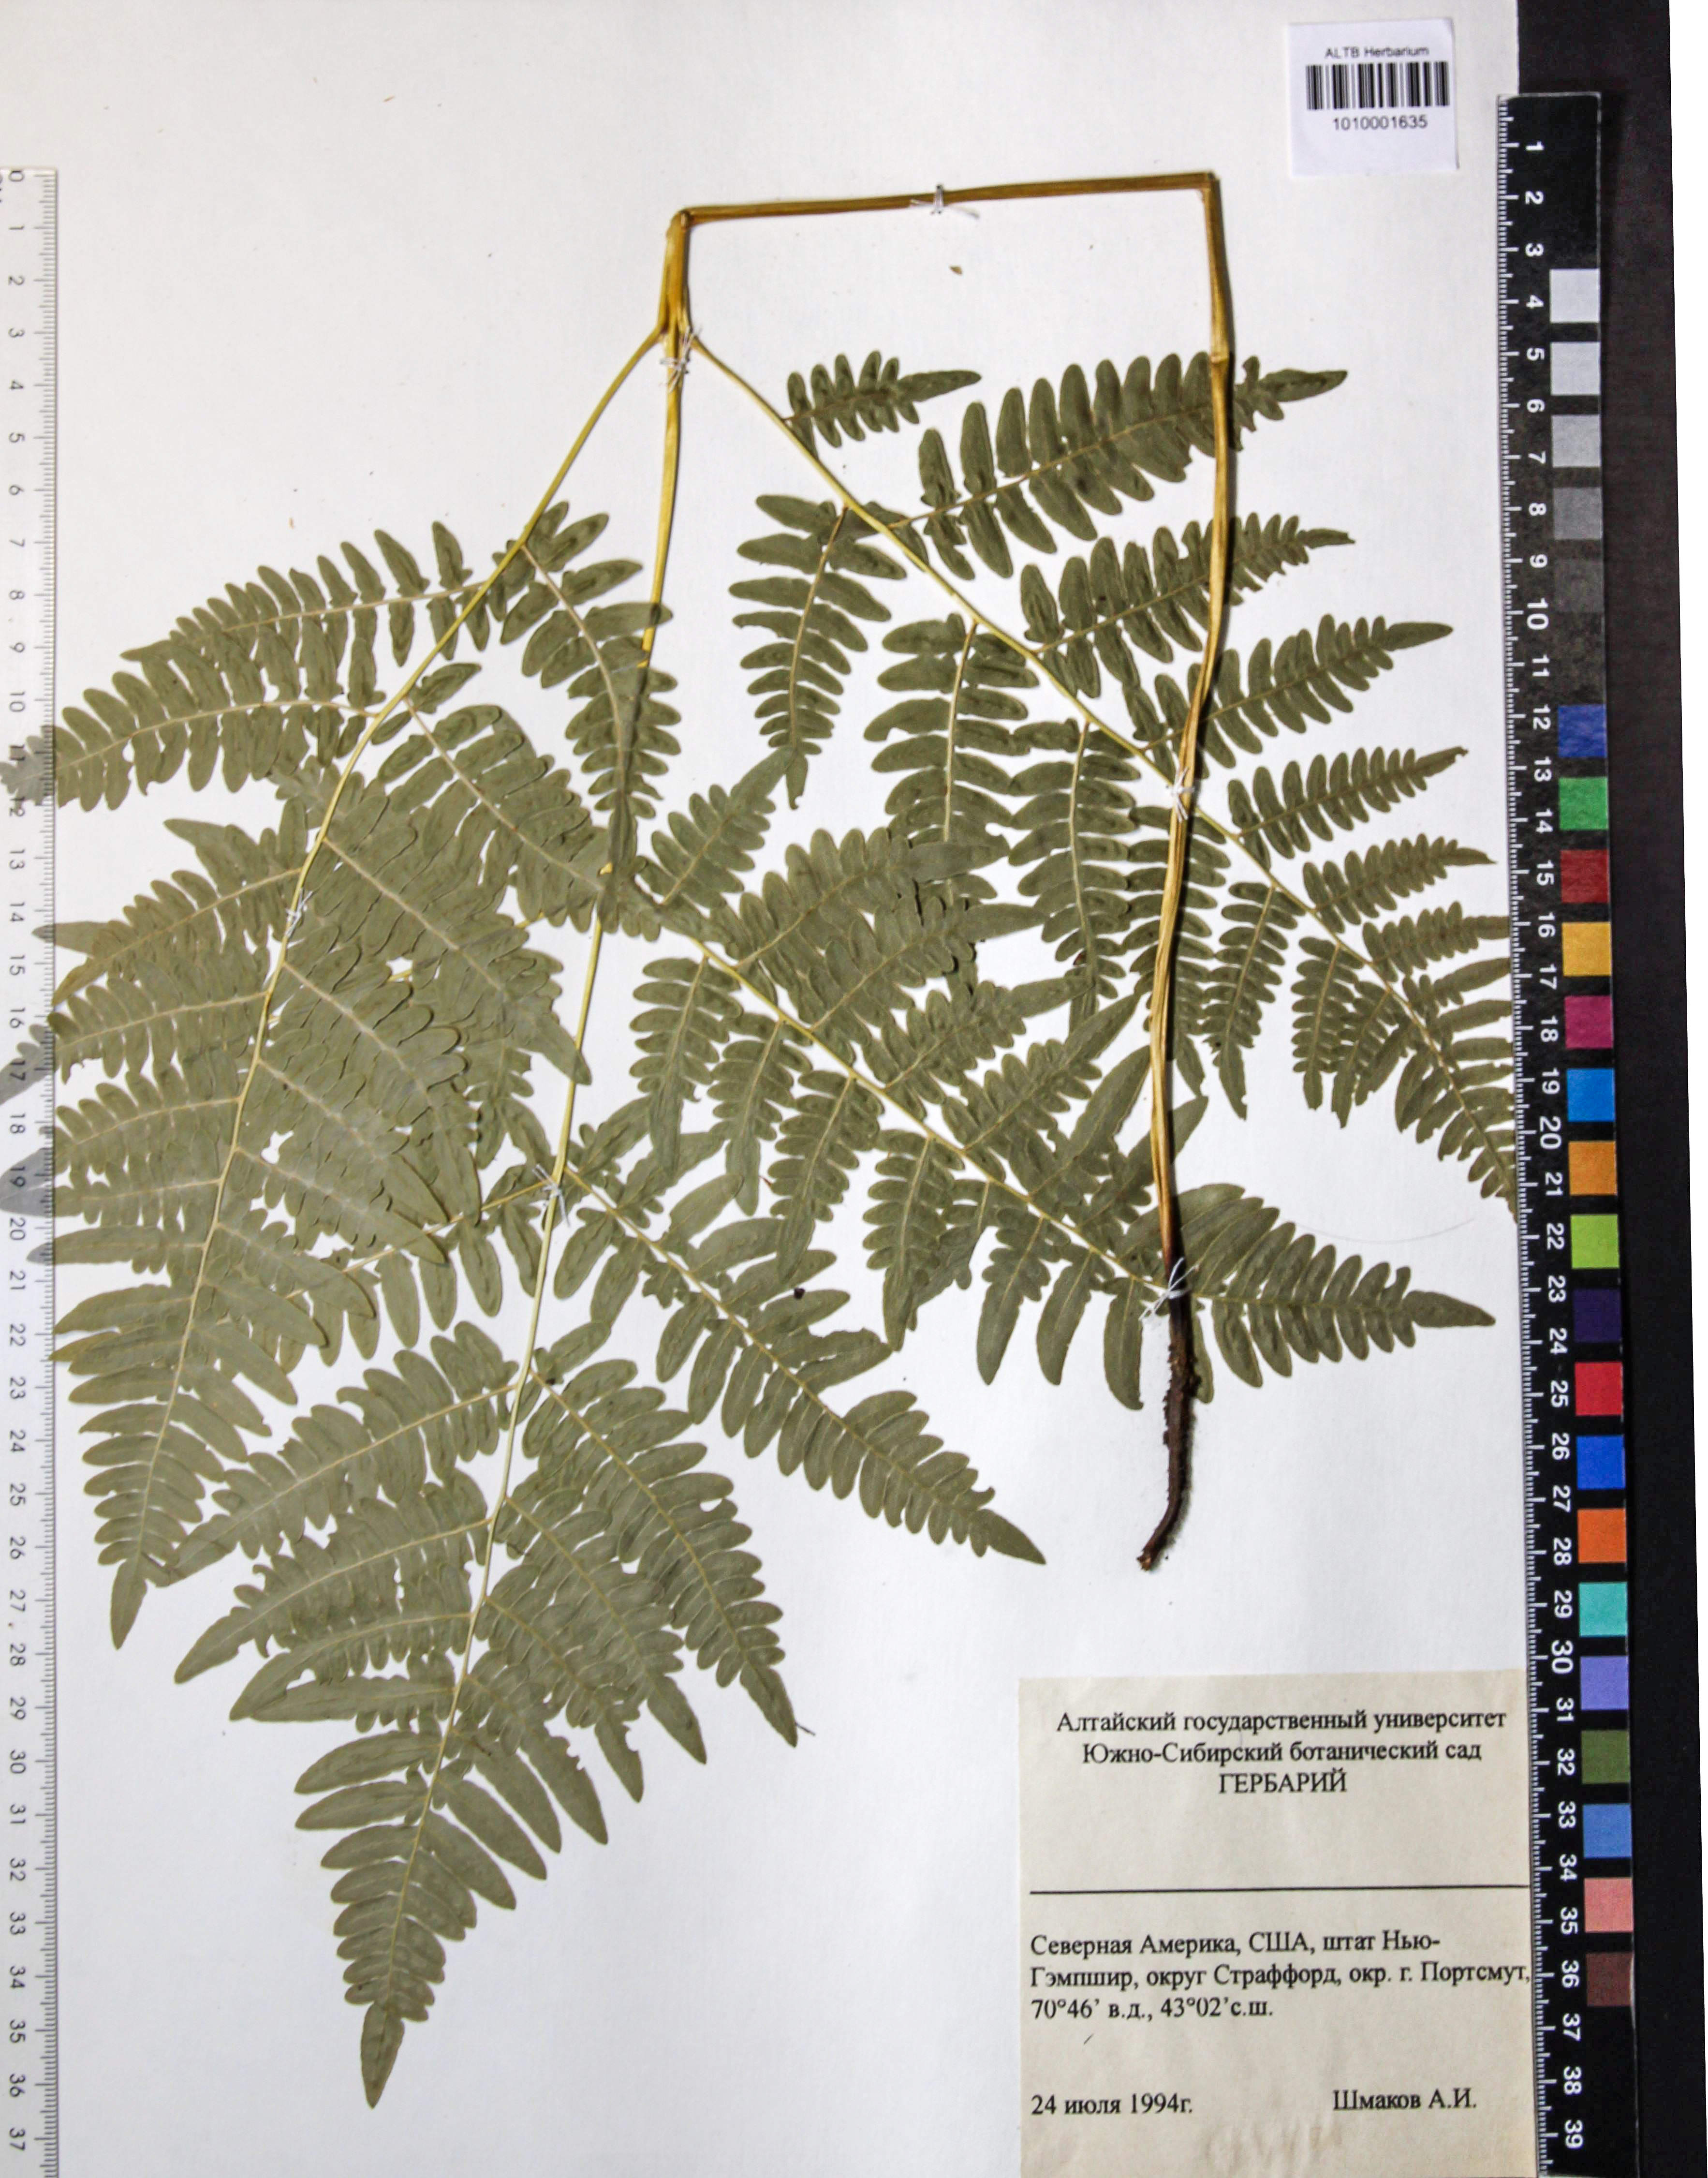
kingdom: Plantae
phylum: Tracheophyta
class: Polypodiopsida
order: Polypodiales
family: Dennstaedtiaceae
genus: Pteridium
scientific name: Pteridium aquilinum
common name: Bracken
